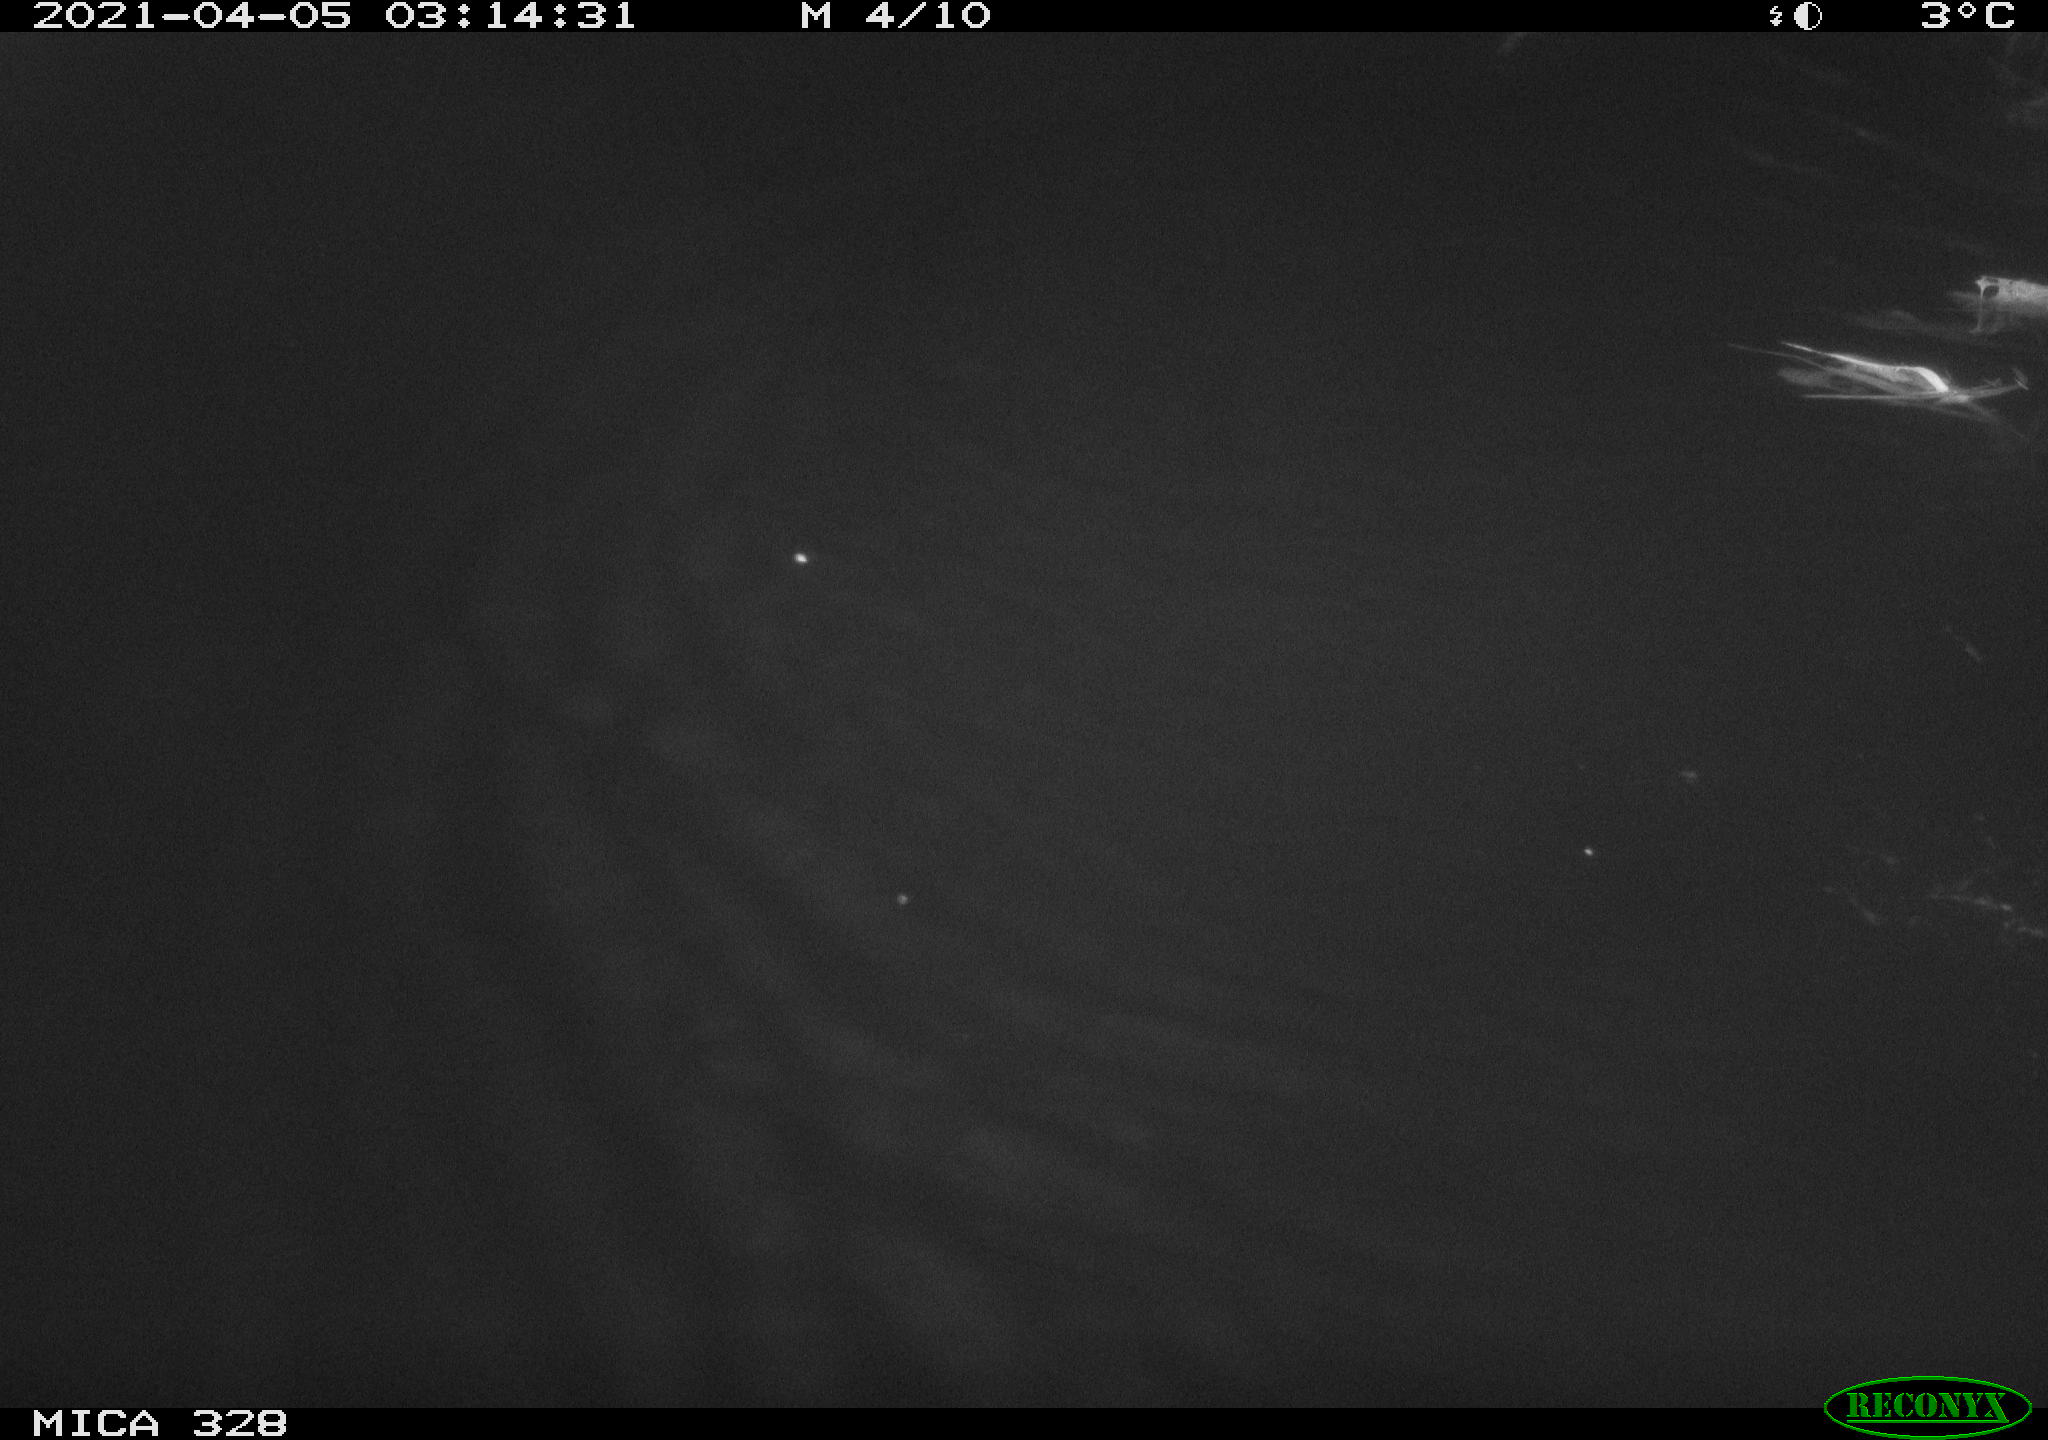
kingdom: Animalia
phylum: Chordata
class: Mammalia
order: Rodentia
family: Cricetidae
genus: Ondatra
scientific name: Ondatra zibethicus
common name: Muskrat
